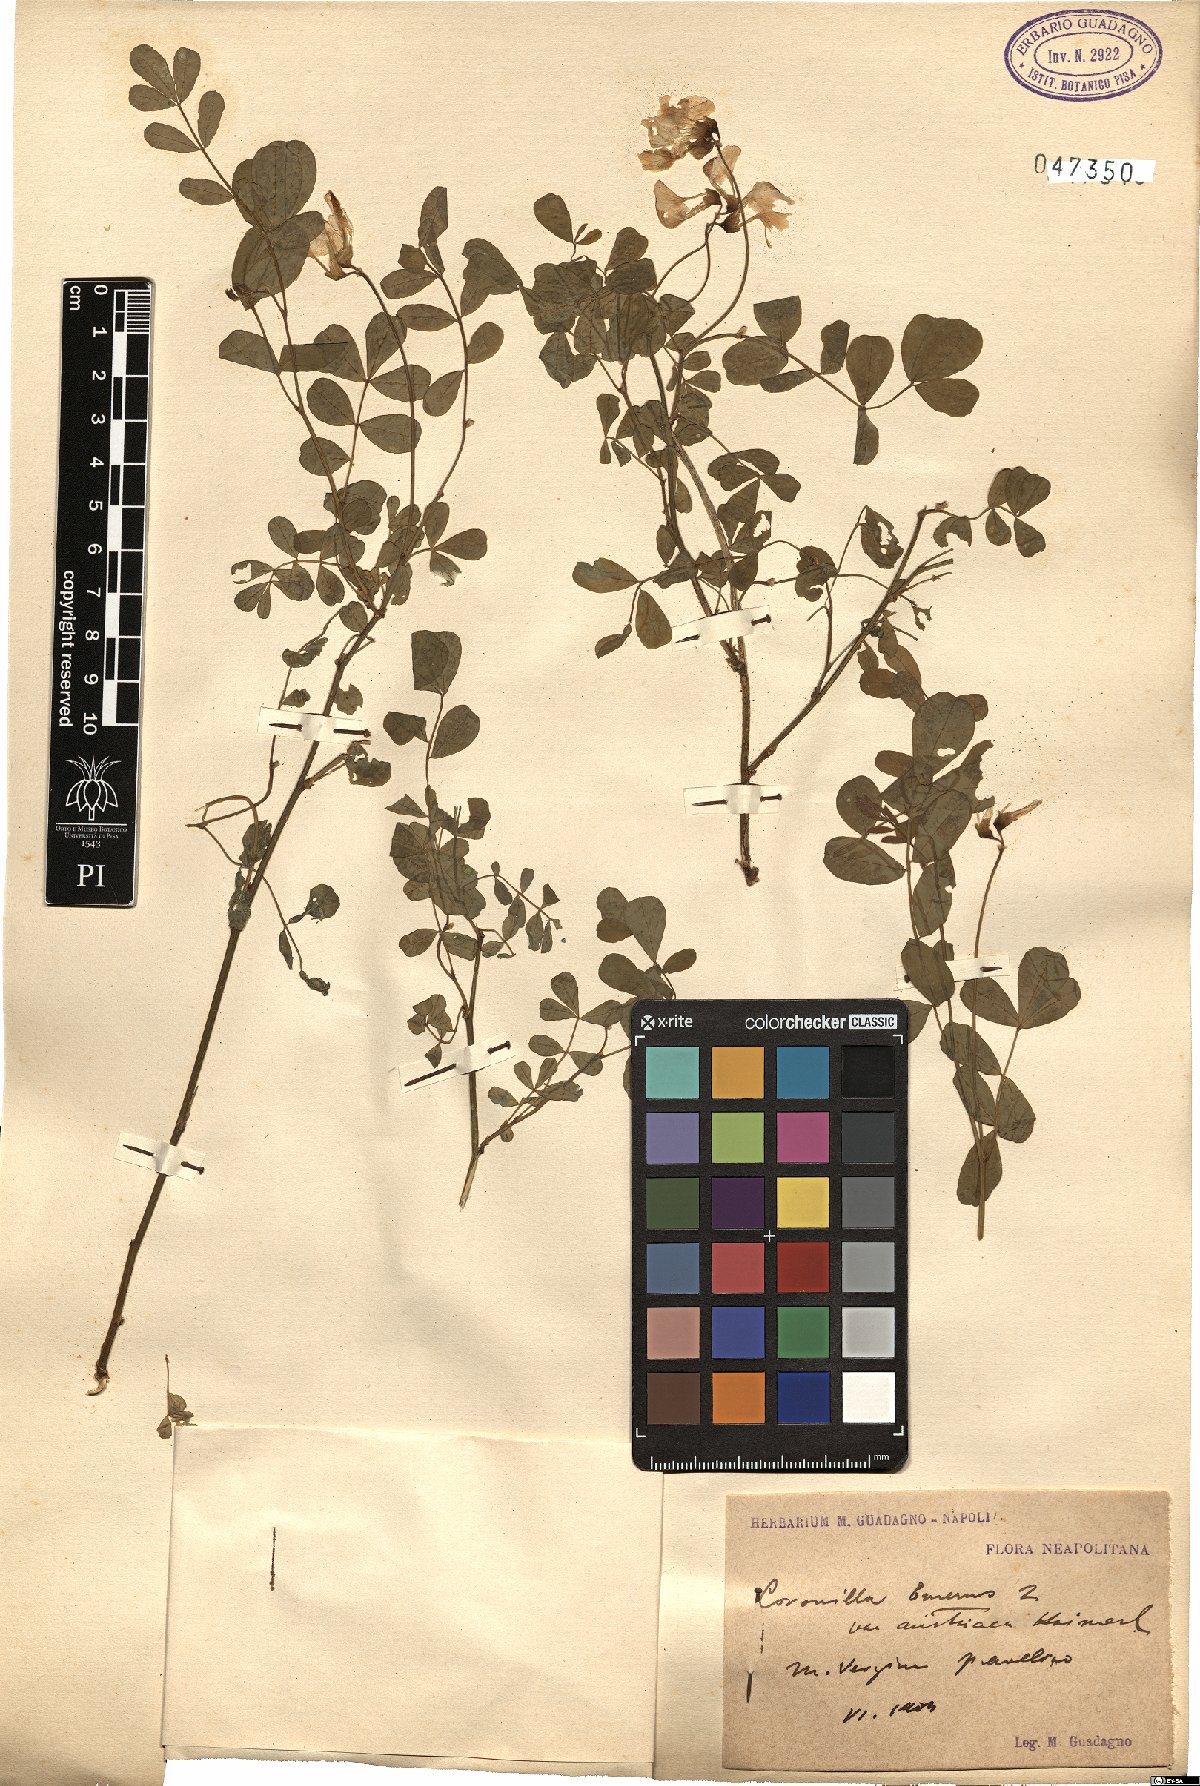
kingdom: Plantae
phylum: Tracheophyta
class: Magnoliopsida
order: Fabales
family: Fabaceae
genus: Hippocrepis
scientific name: Hippocrepis emerus
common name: Scorpion senna
